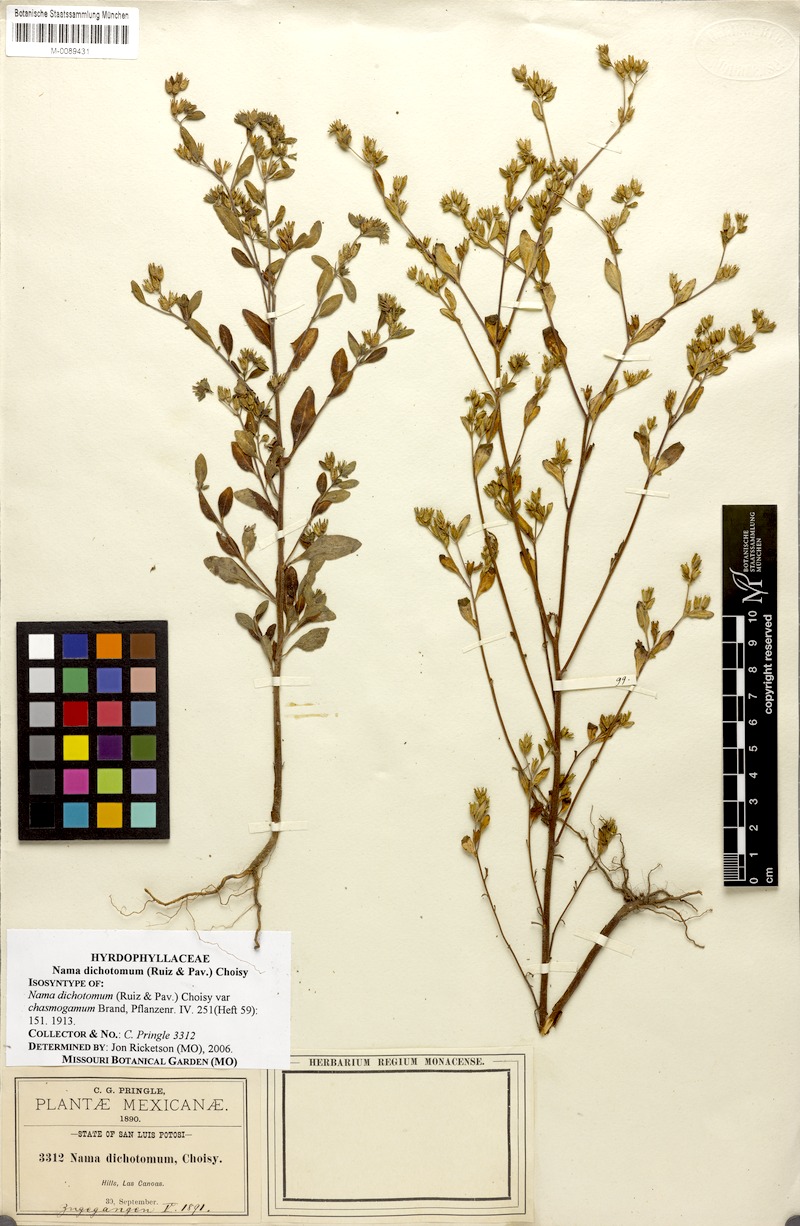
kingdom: Plantae
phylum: Tracheophyta
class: Magnoliopsida
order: Boraginales
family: Namaceae
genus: Nama
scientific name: Nama dichotoma
